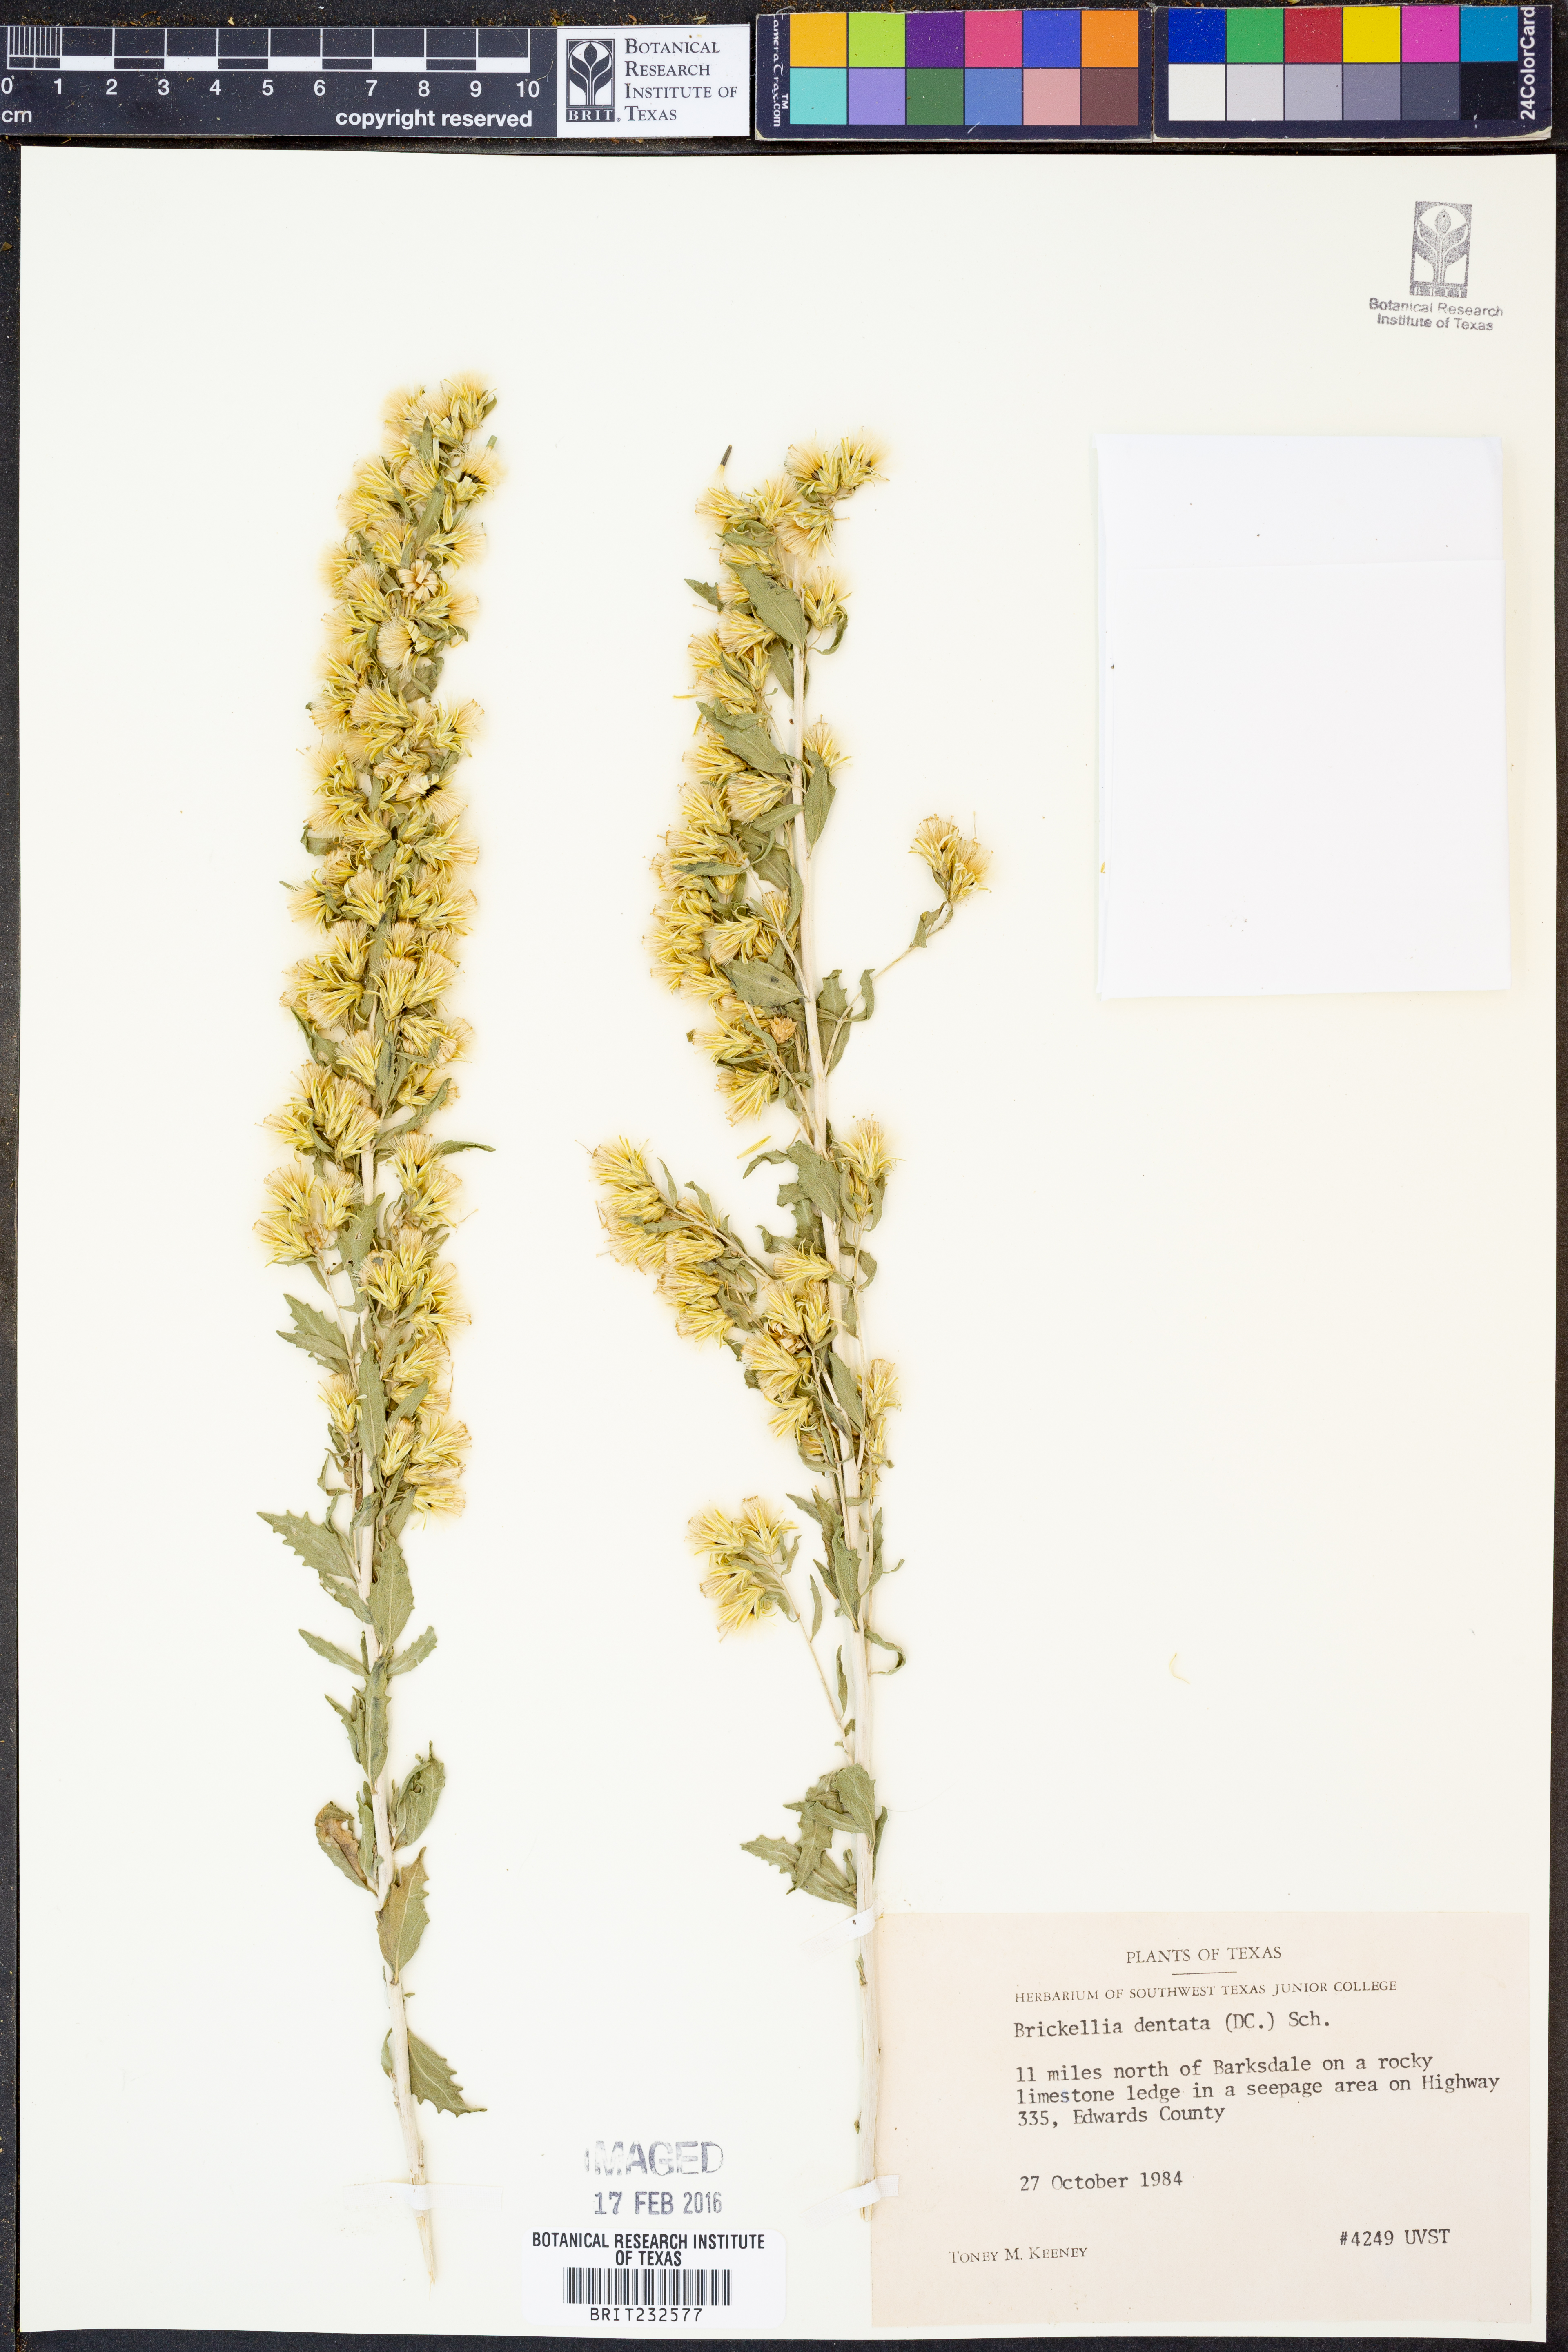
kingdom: Plantae
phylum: Tracheophyta
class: Magnoliopsida
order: Asterales
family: Asteraceae
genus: Brickellia
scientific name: Brickellia dentata
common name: Leafy brickellbush
